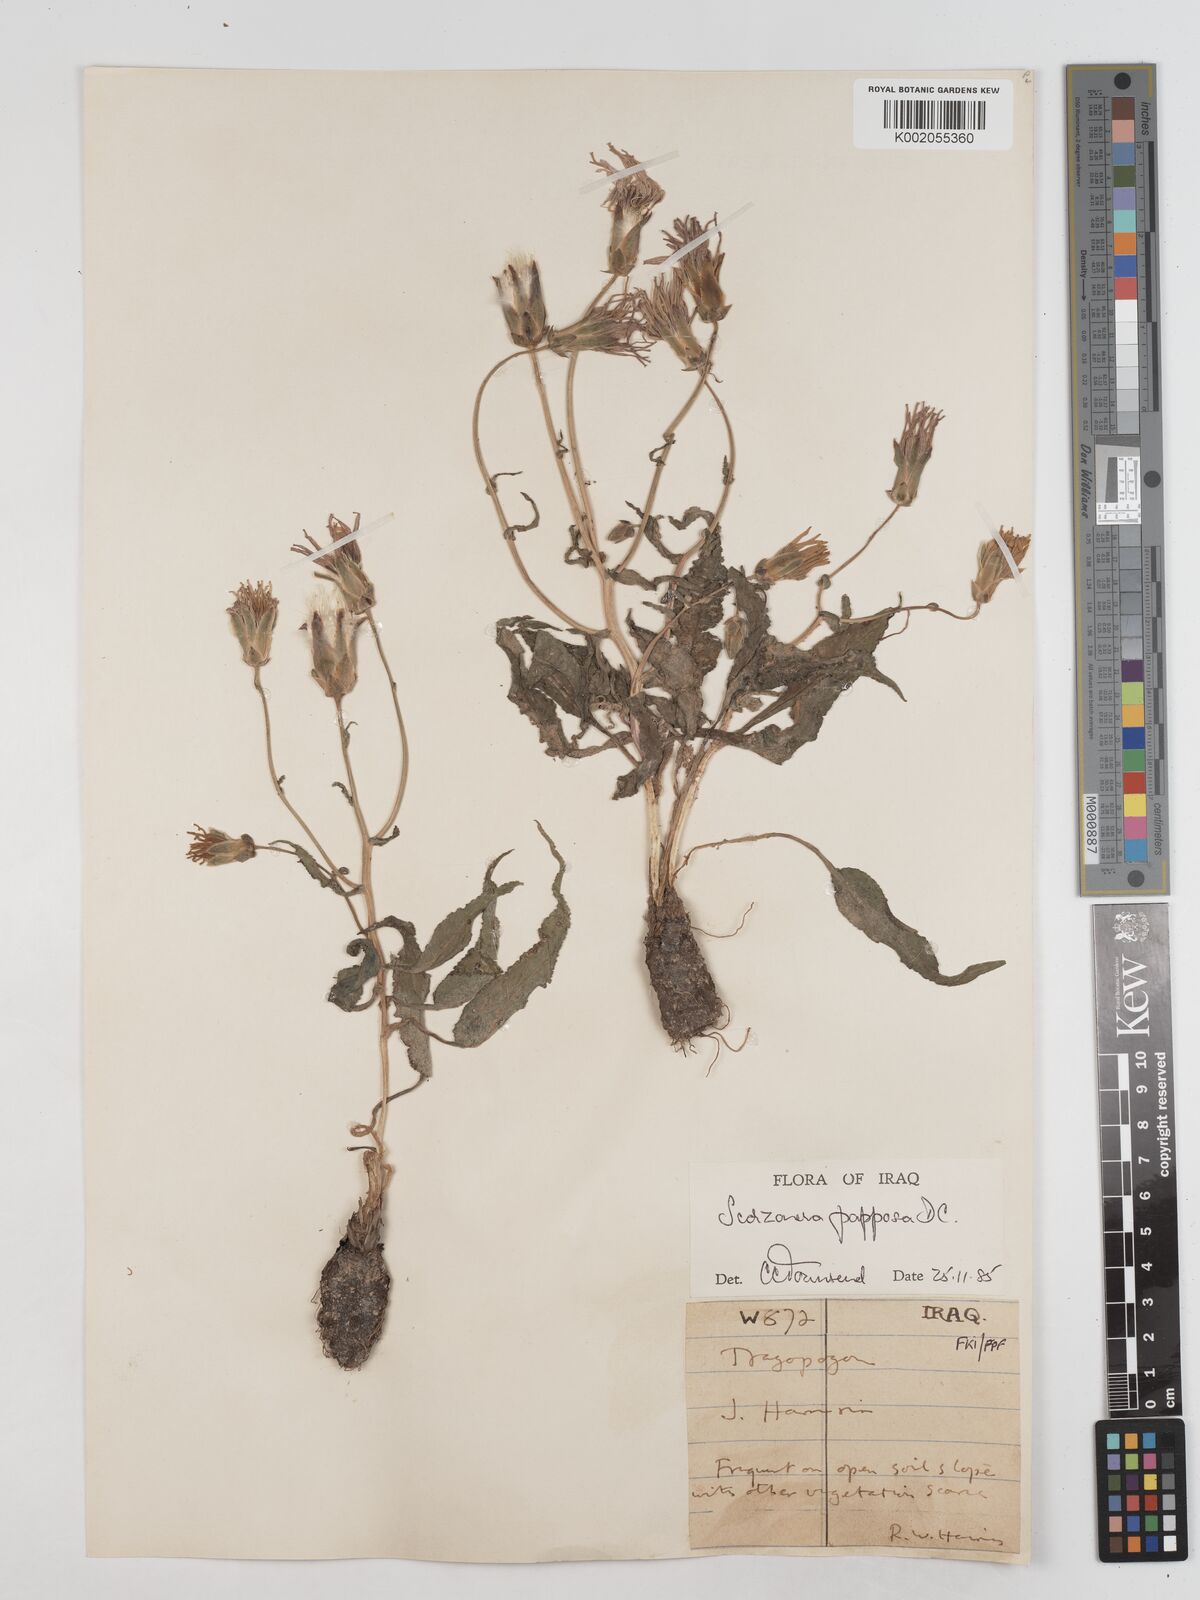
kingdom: Plantae
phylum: Tracheophyta
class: Magnoliopsida
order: Asterales
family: Asteraceae
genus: Pseudopodospermum
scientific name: Pseudopodospermum papposum
